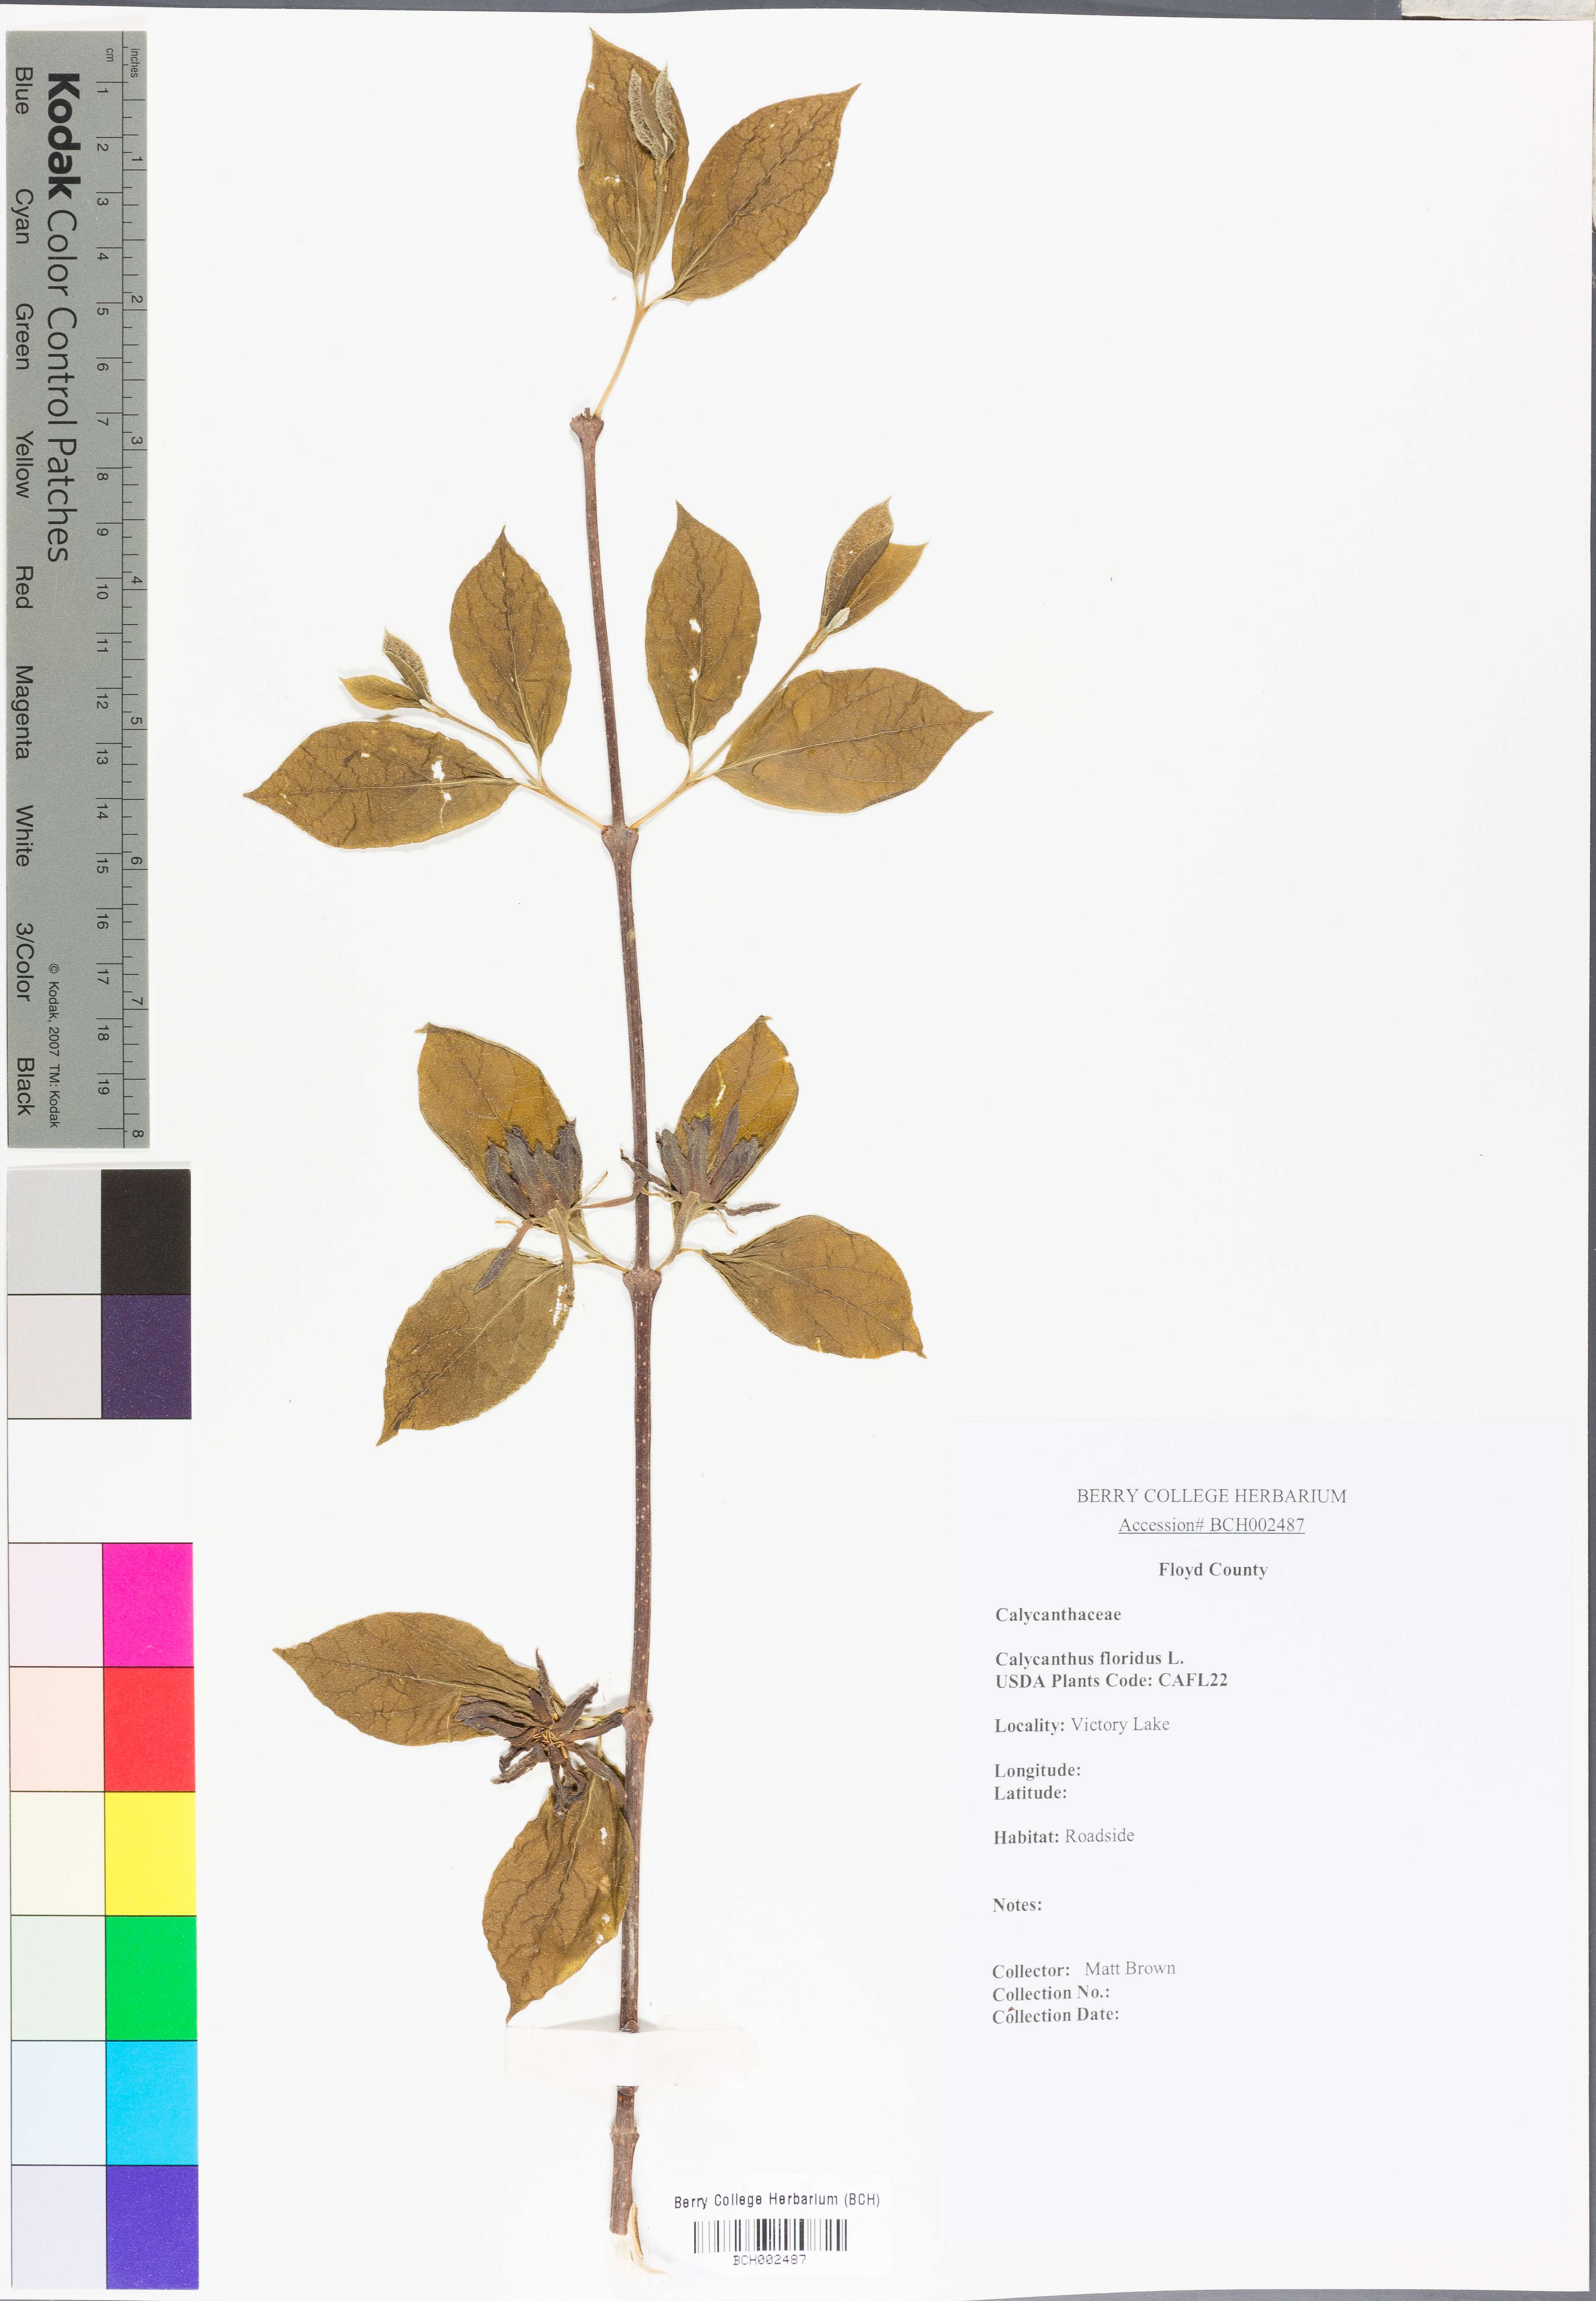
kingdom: Plantae
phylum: Tracheophyta
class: Magnoliopsida
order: Laurales
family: Calycanthaceae
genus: Calycanthus
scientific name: Calycanthus floridus
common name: Carolina-allspice
